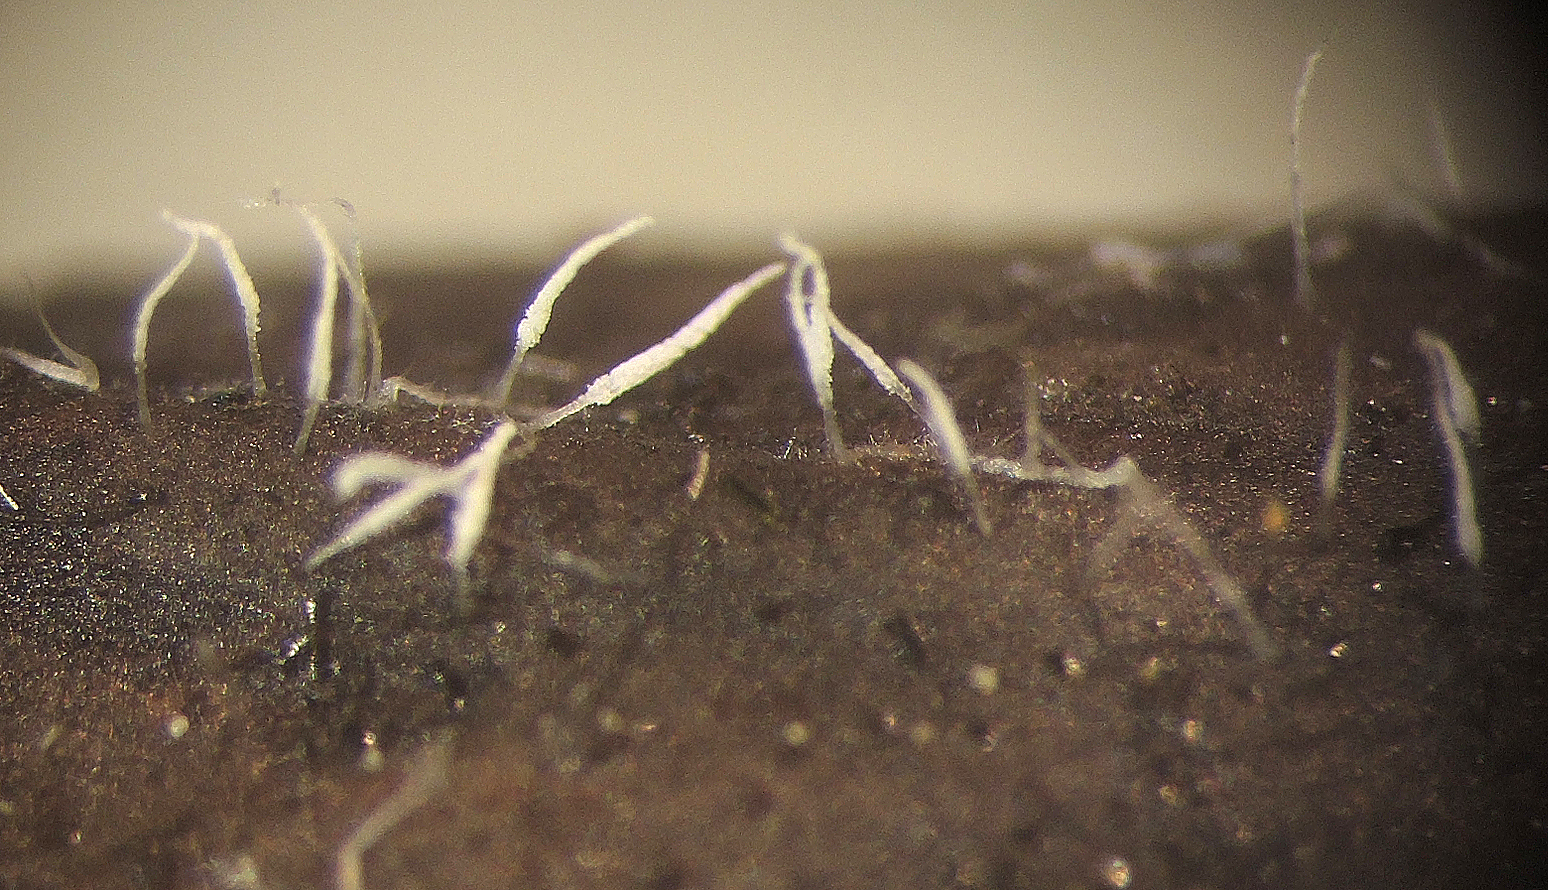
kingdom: Fungi
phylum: Basidiomycota
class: Agaricomycetes
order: Gomphales
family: Gomphaceae
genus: Ceratellopsis
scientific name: Ceratellopsis aculeata
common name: avneknippe-sylkølle
